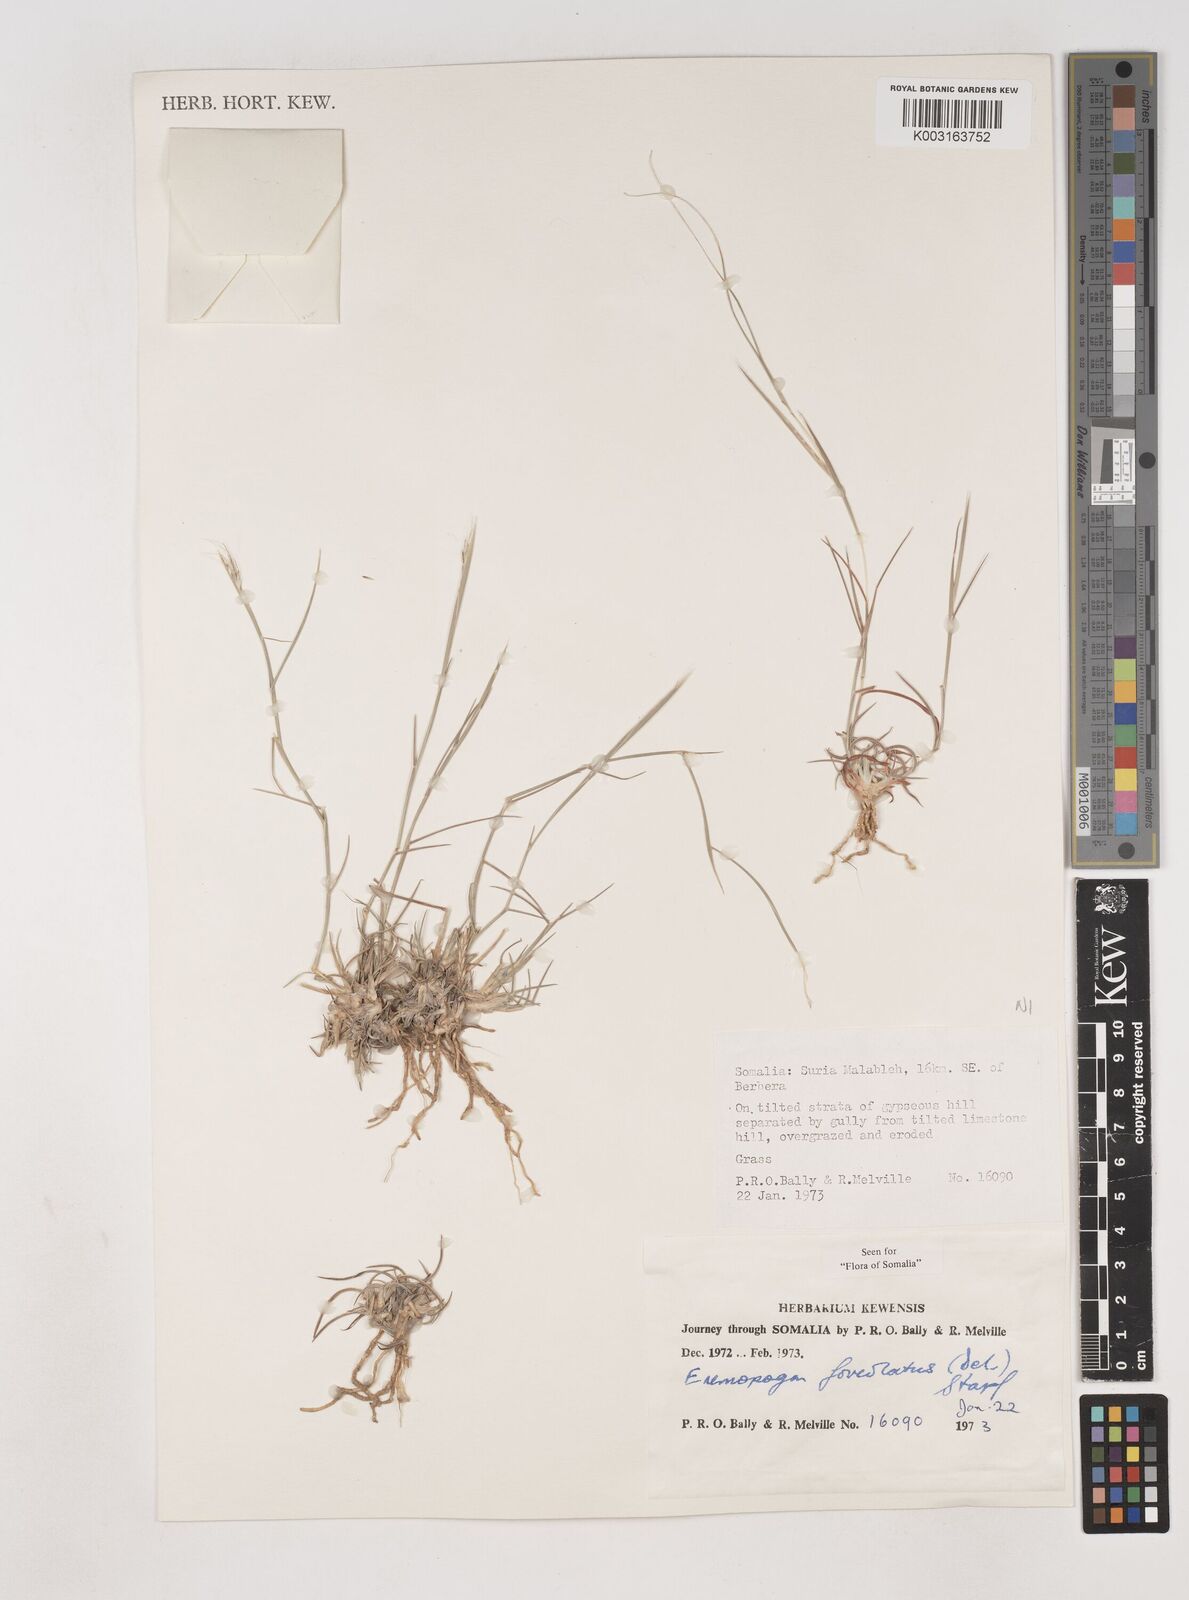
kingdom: Plantae
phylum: Tracheophyta
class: Liliopsida
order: Poales
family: Poaceae
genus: Dichanthium
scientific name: Dichanthium foveolatum
